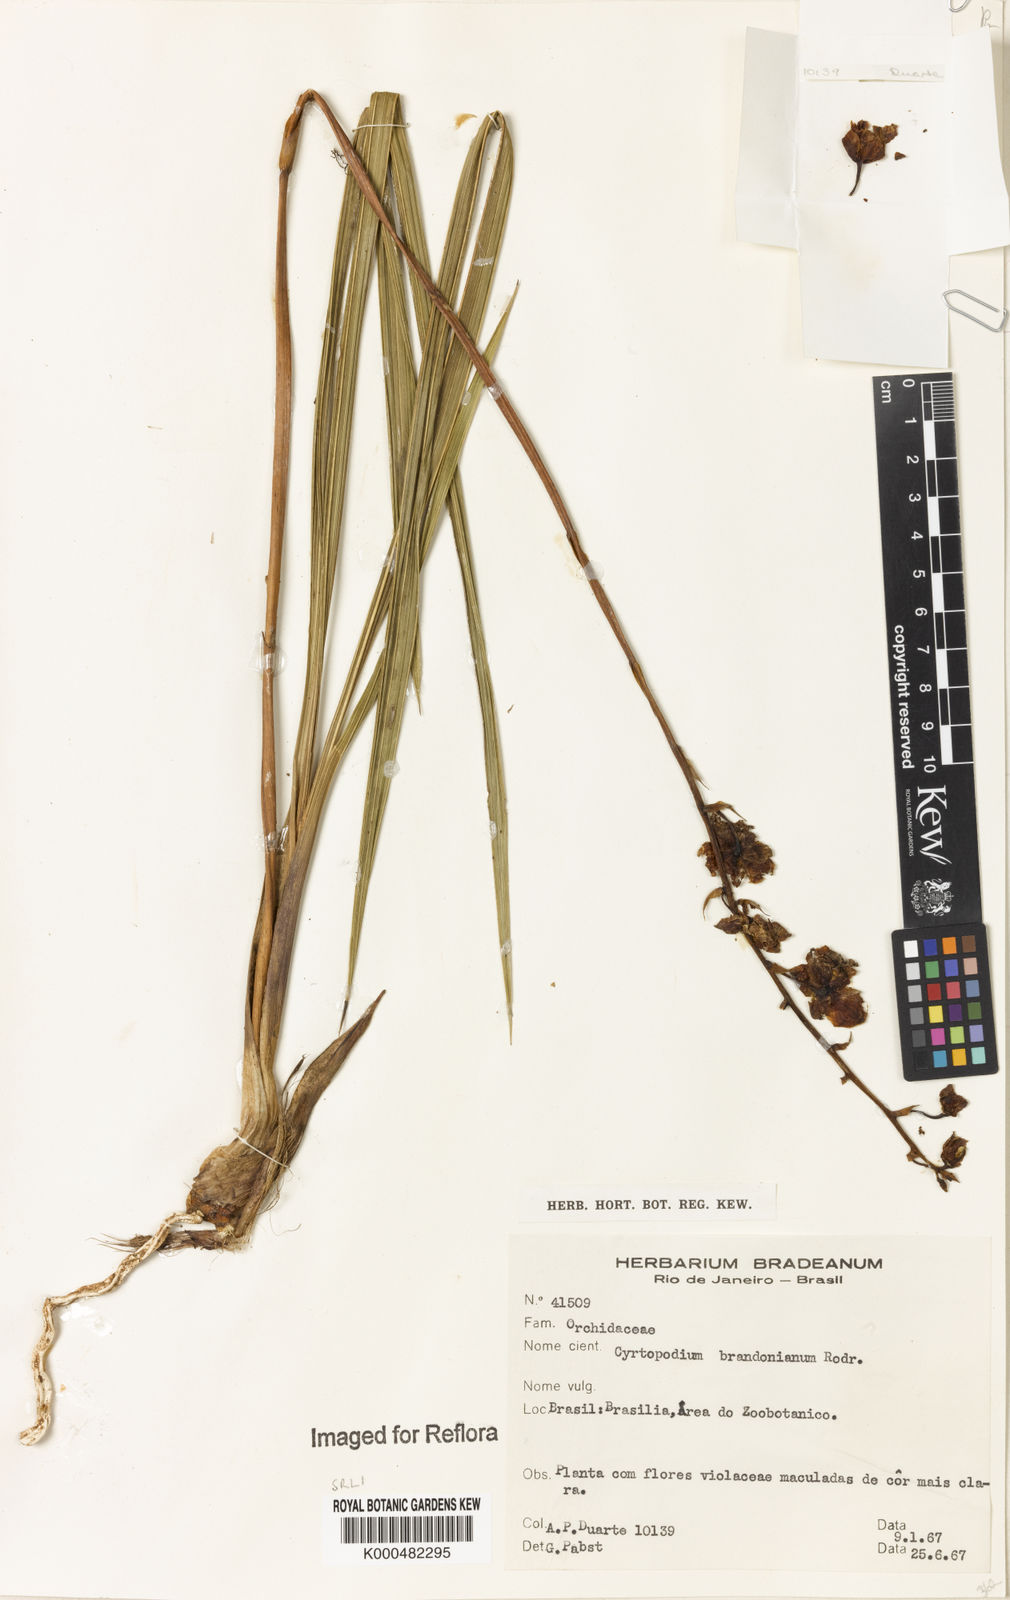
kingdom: Plantae
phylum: Tracheophyta
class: Liliopsida
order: Asparagales
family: Orchidaceae
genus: Cyrtopodium
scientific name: Cyrtopodium brandonianum
